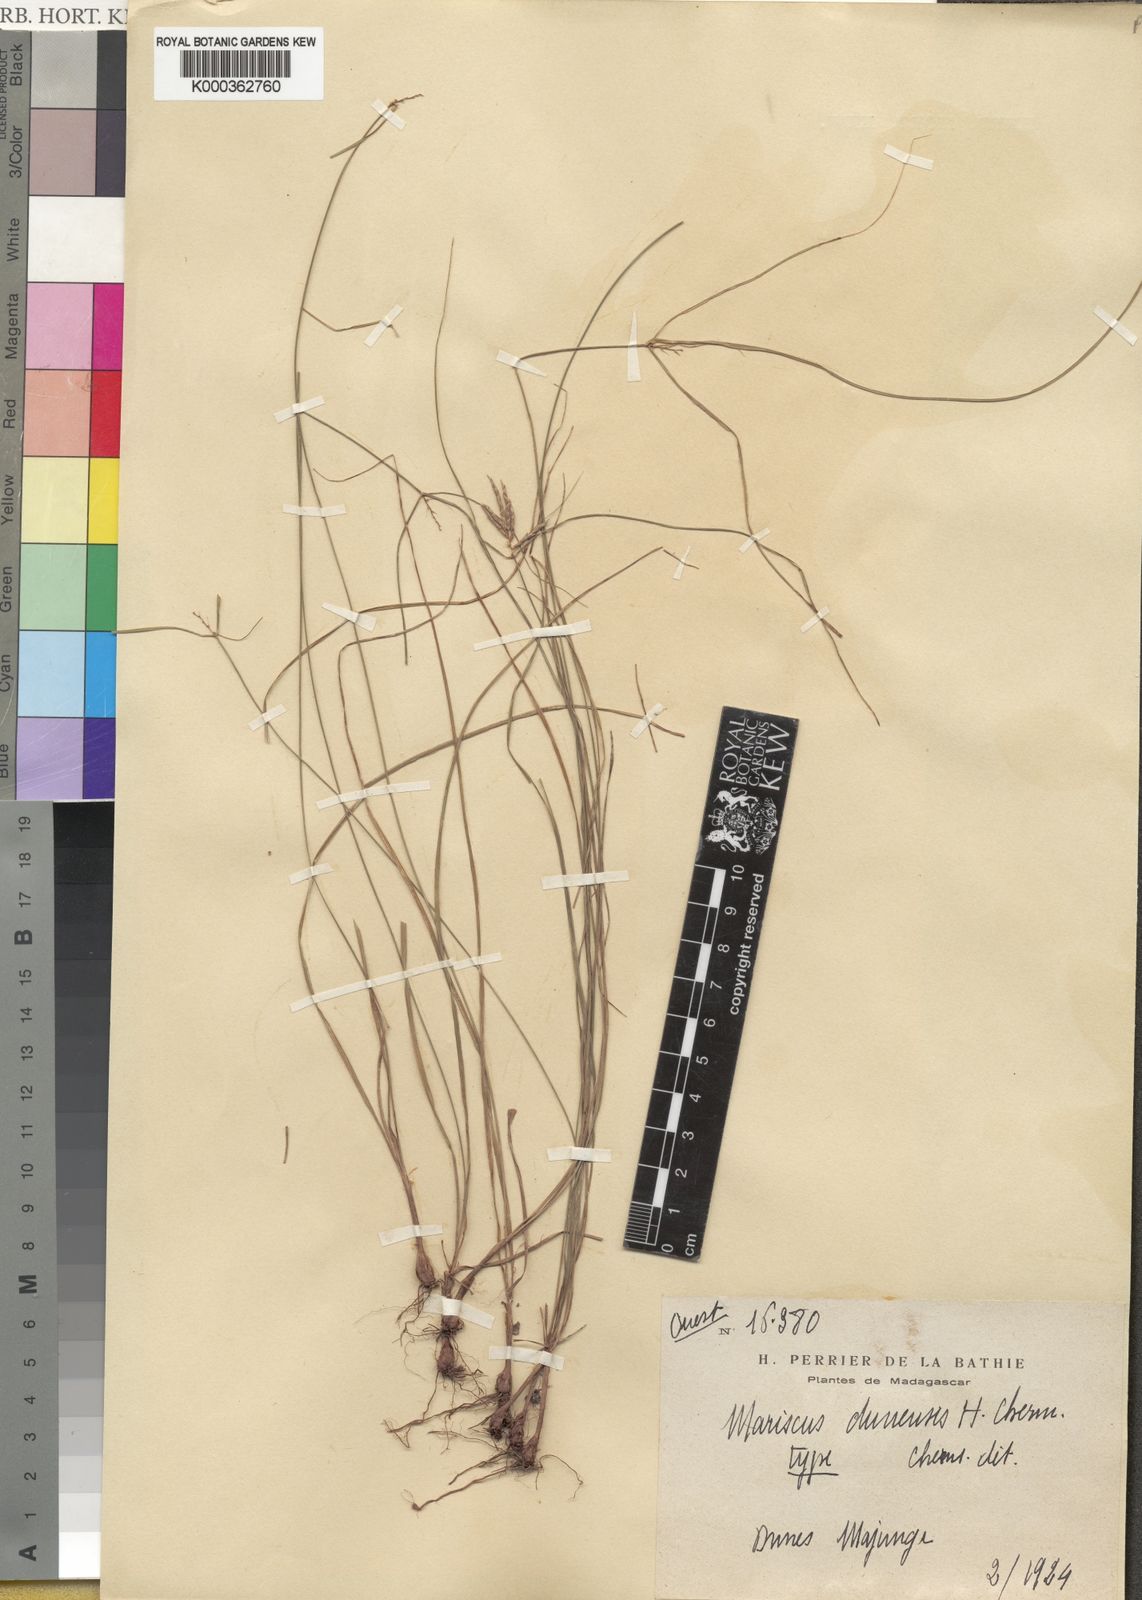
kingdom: Plantae
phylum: Tracheophyta
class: Liliopsida
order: Poales
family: Cyperaceae
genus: Cyperus
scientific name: Cyperus
